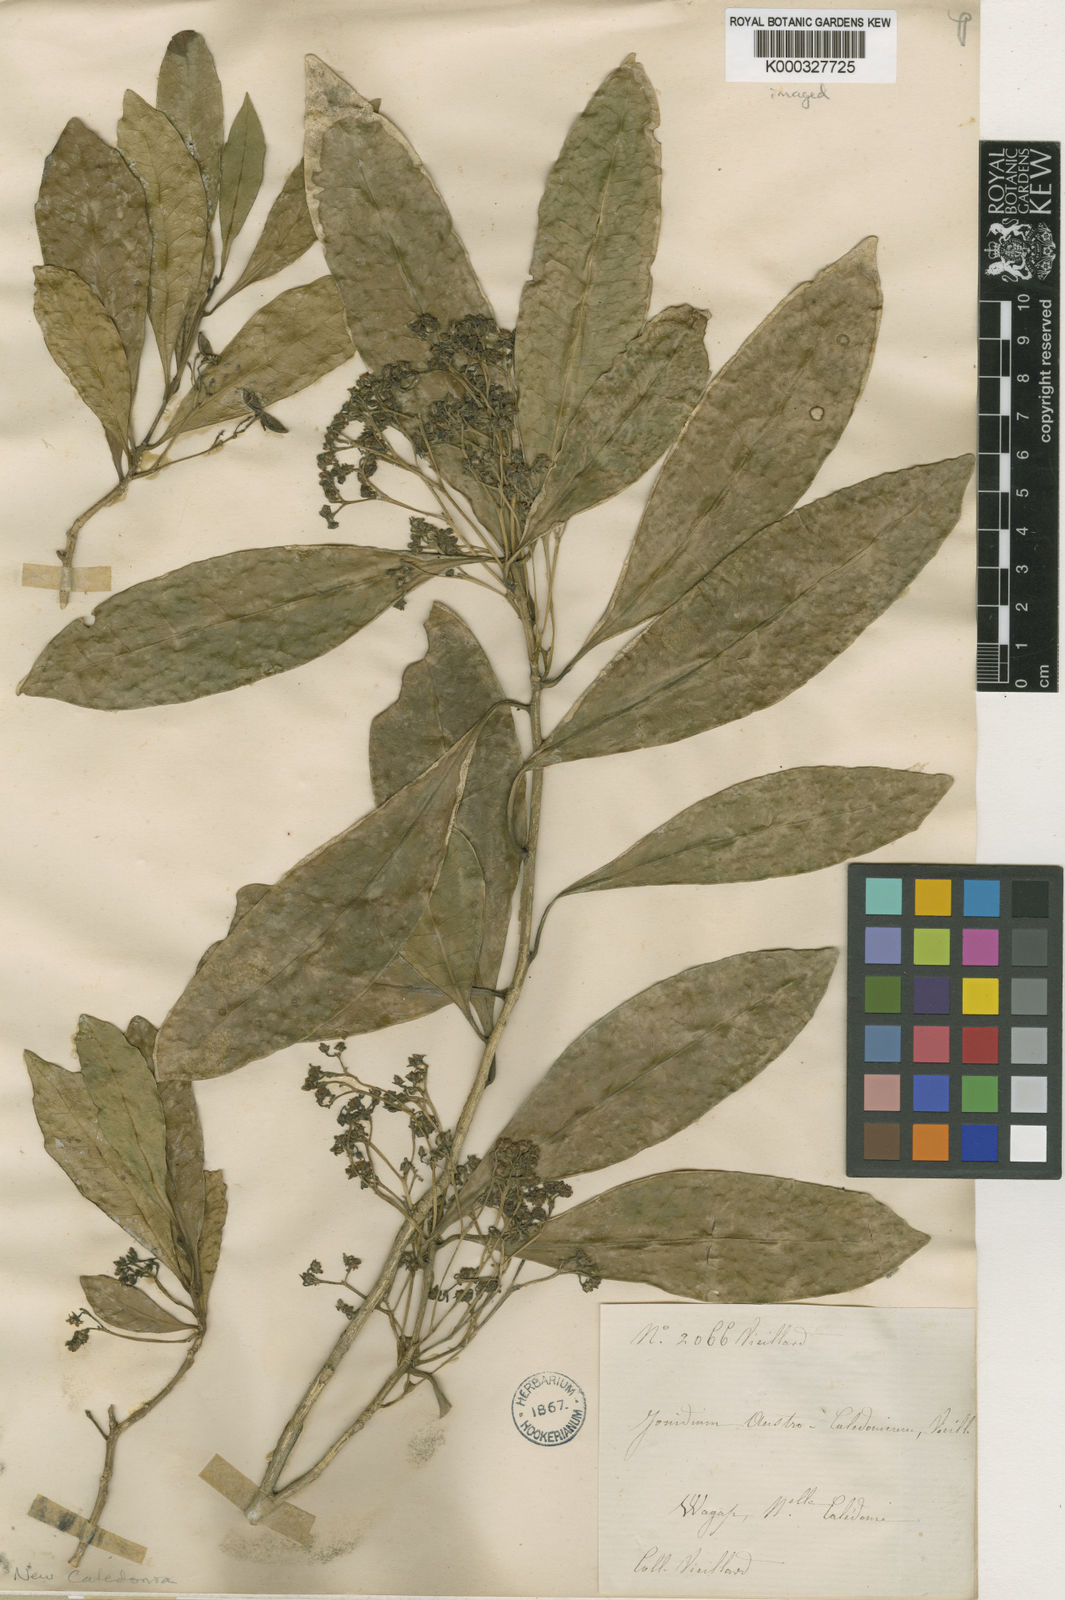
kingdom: Plantae
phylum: Tracheophyta
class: Magnoliopsida
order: Malpighiales
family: Violaceae
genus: Hybanthus
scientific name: Hybanthus austrocaledonicus
